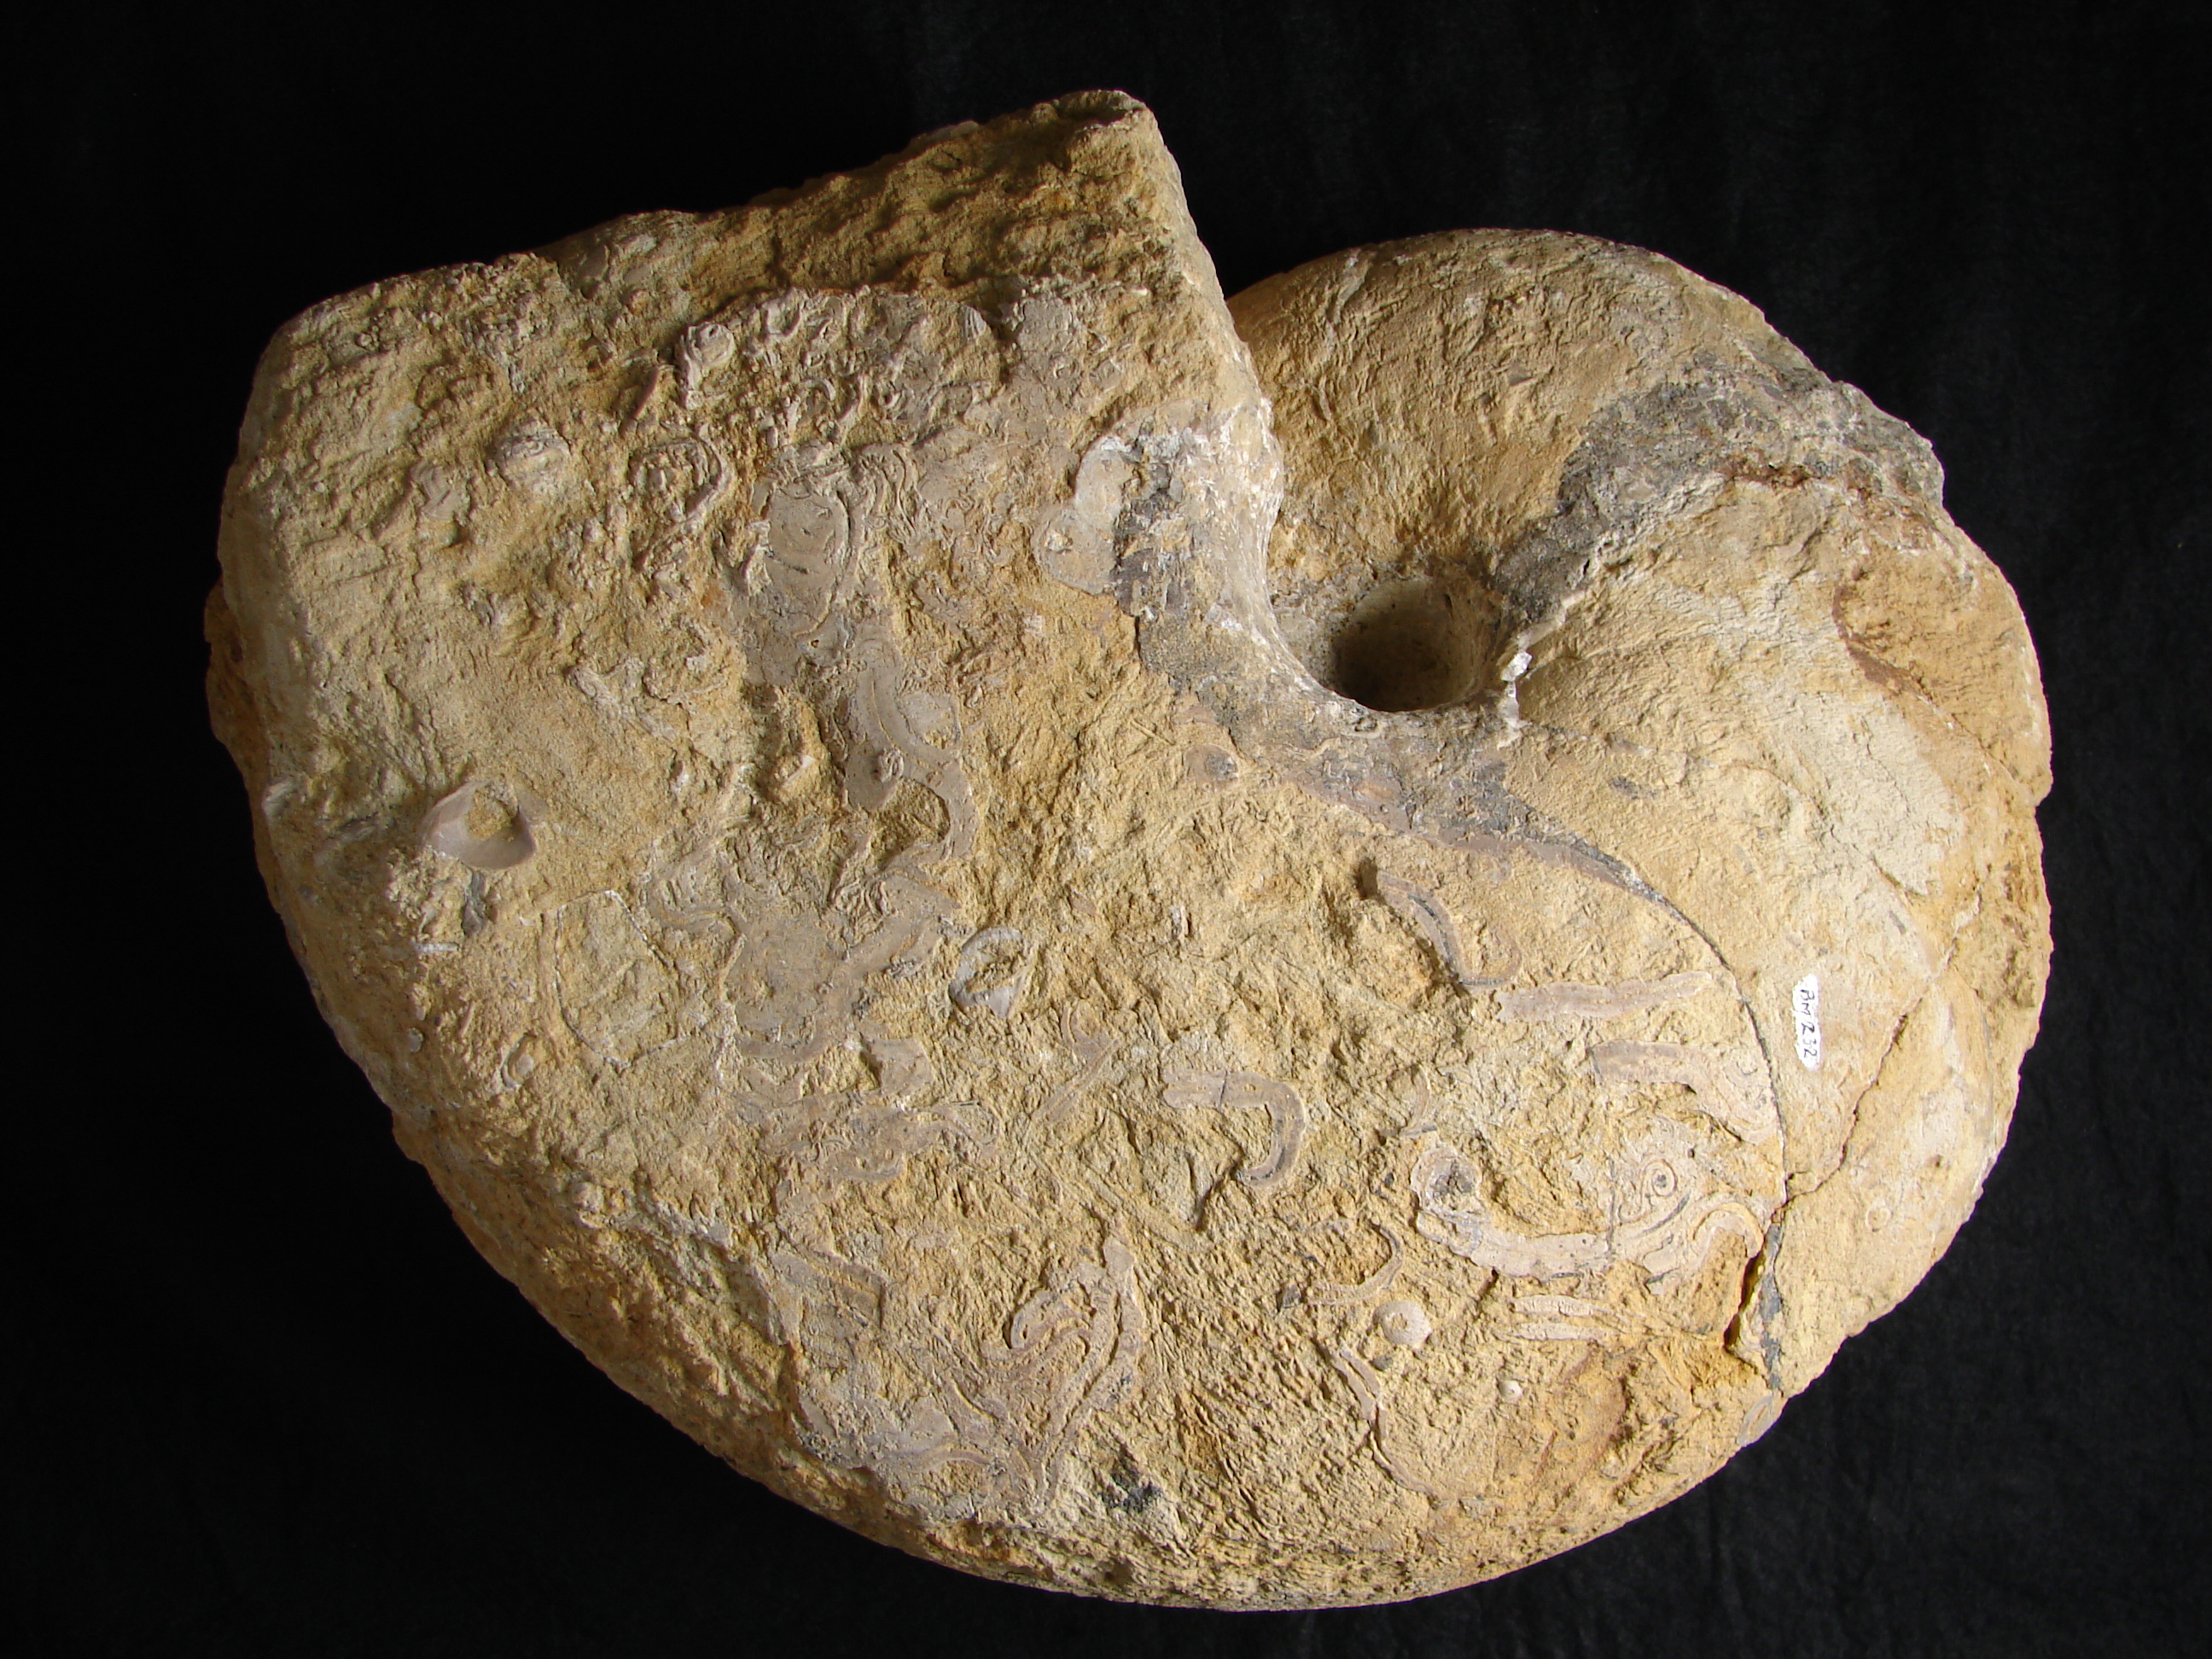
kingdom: Animalia
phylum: Mollusca
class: Cephalopoda
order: Nautilida
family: Nautilidae
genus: Cenoceras
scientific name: Cenoceras
